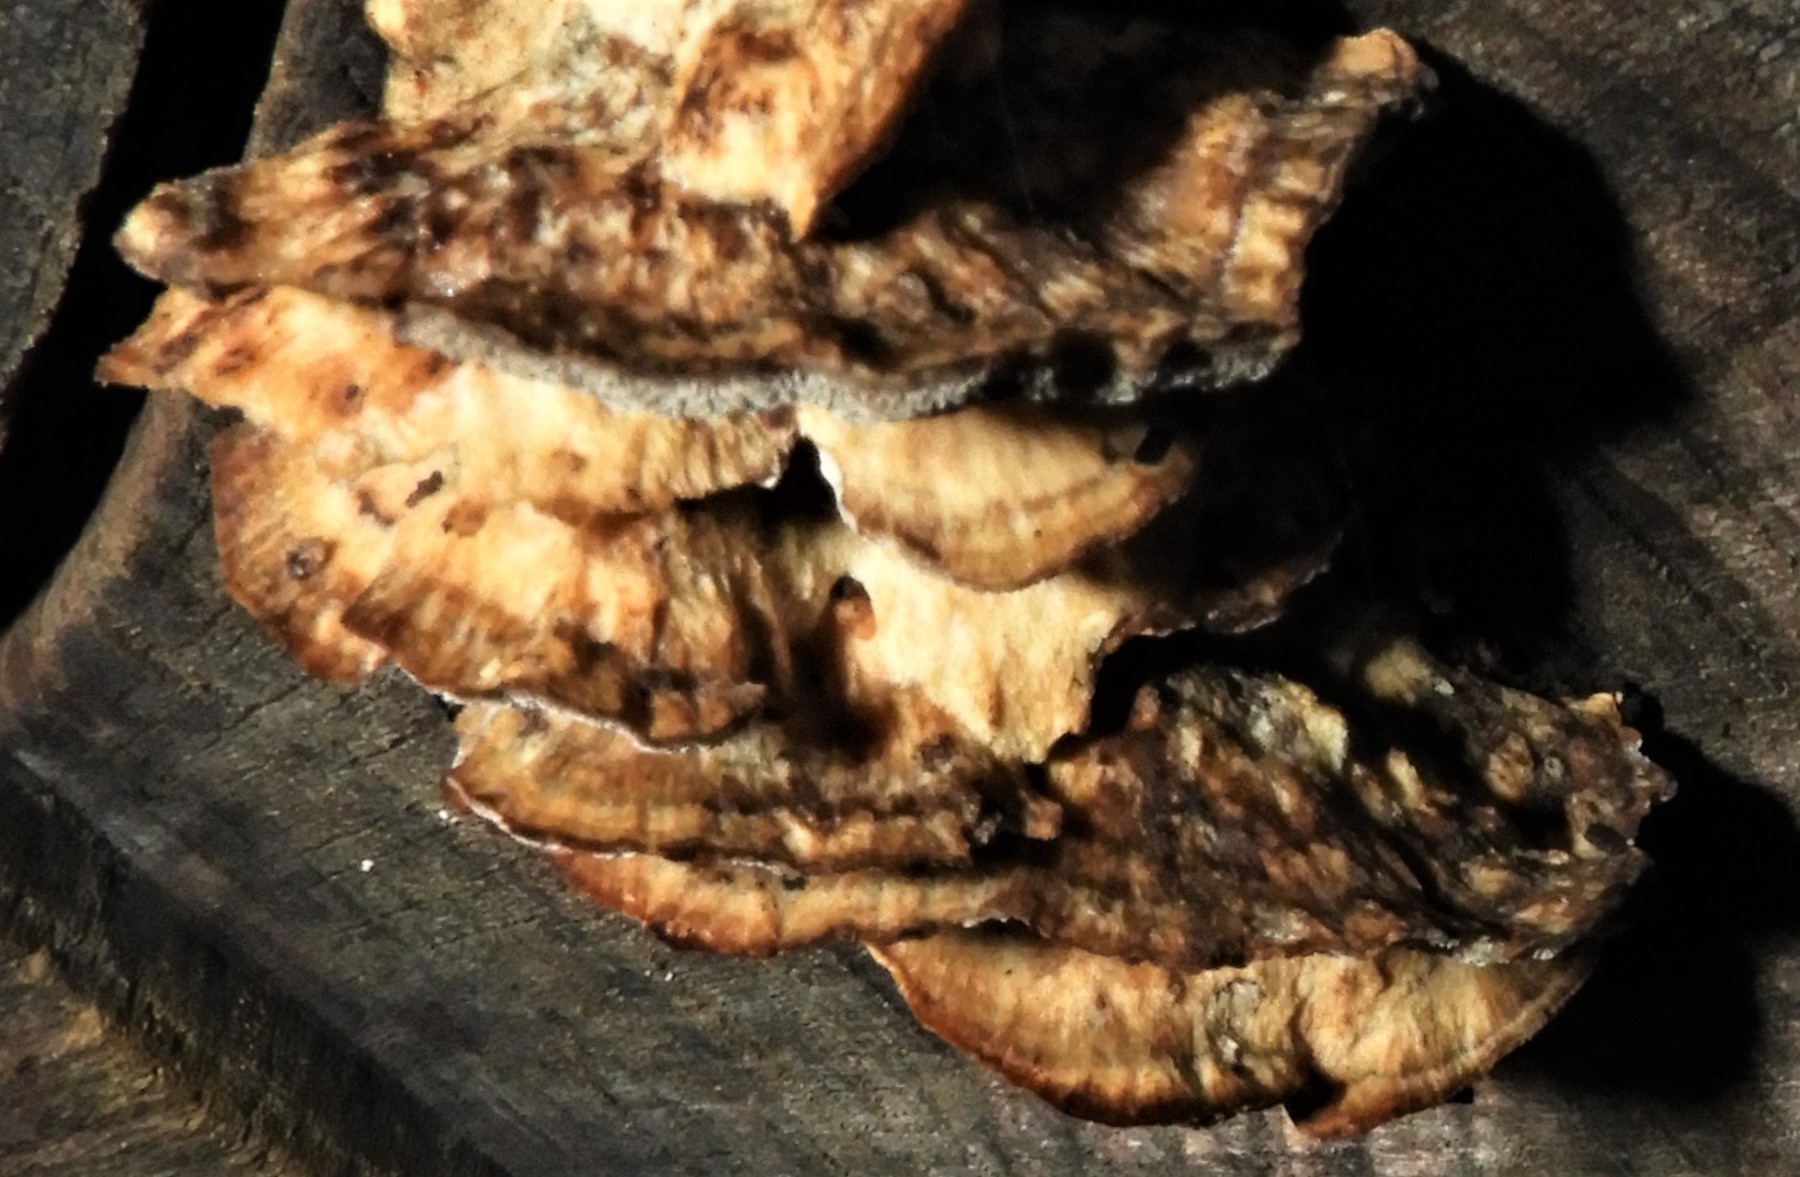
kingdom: Fungi
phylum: Basidiomycota
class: Agaricomycetes
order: Polyporales
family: Phanerochaetaceae
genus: Bjerkandera
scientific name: Bjerkandera adusta
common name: sveden sodporesvamp
